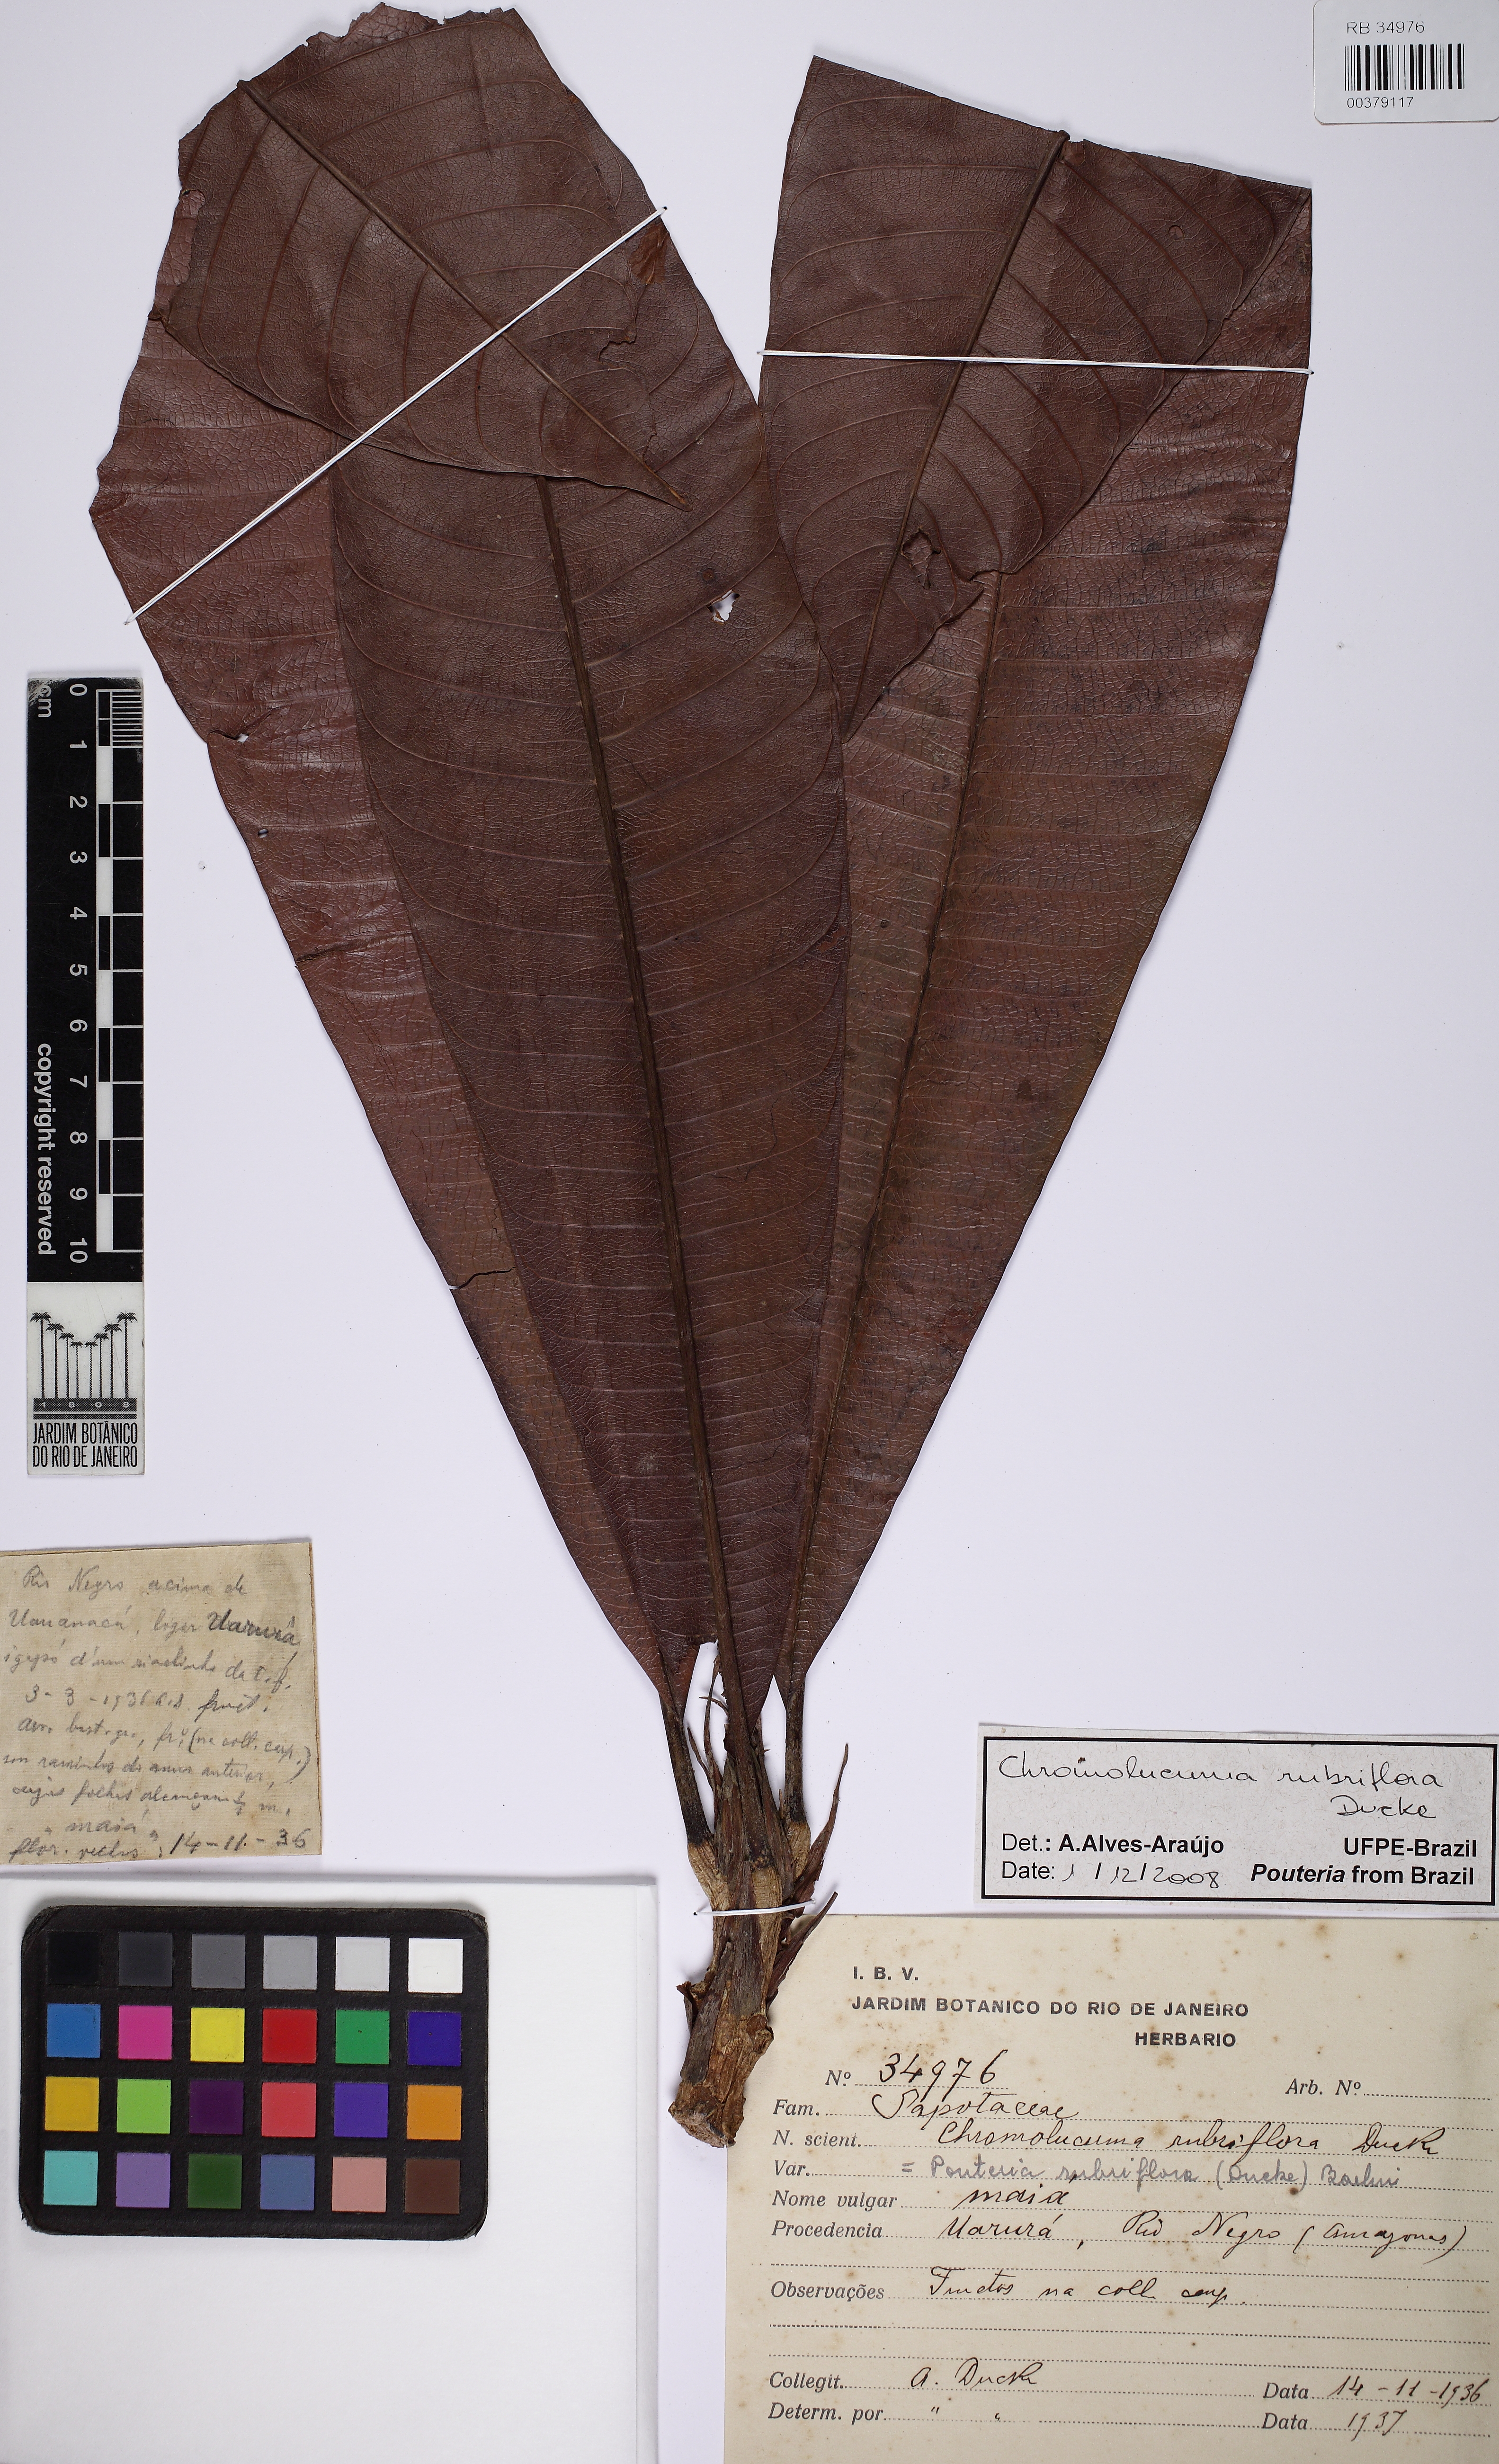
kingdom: Plantae
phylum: Tracheophyta
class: Magnoliopsida
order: Ericales
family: Sapotaceae
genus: Chromolucuma
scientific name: Chromolucuma rubriflora
